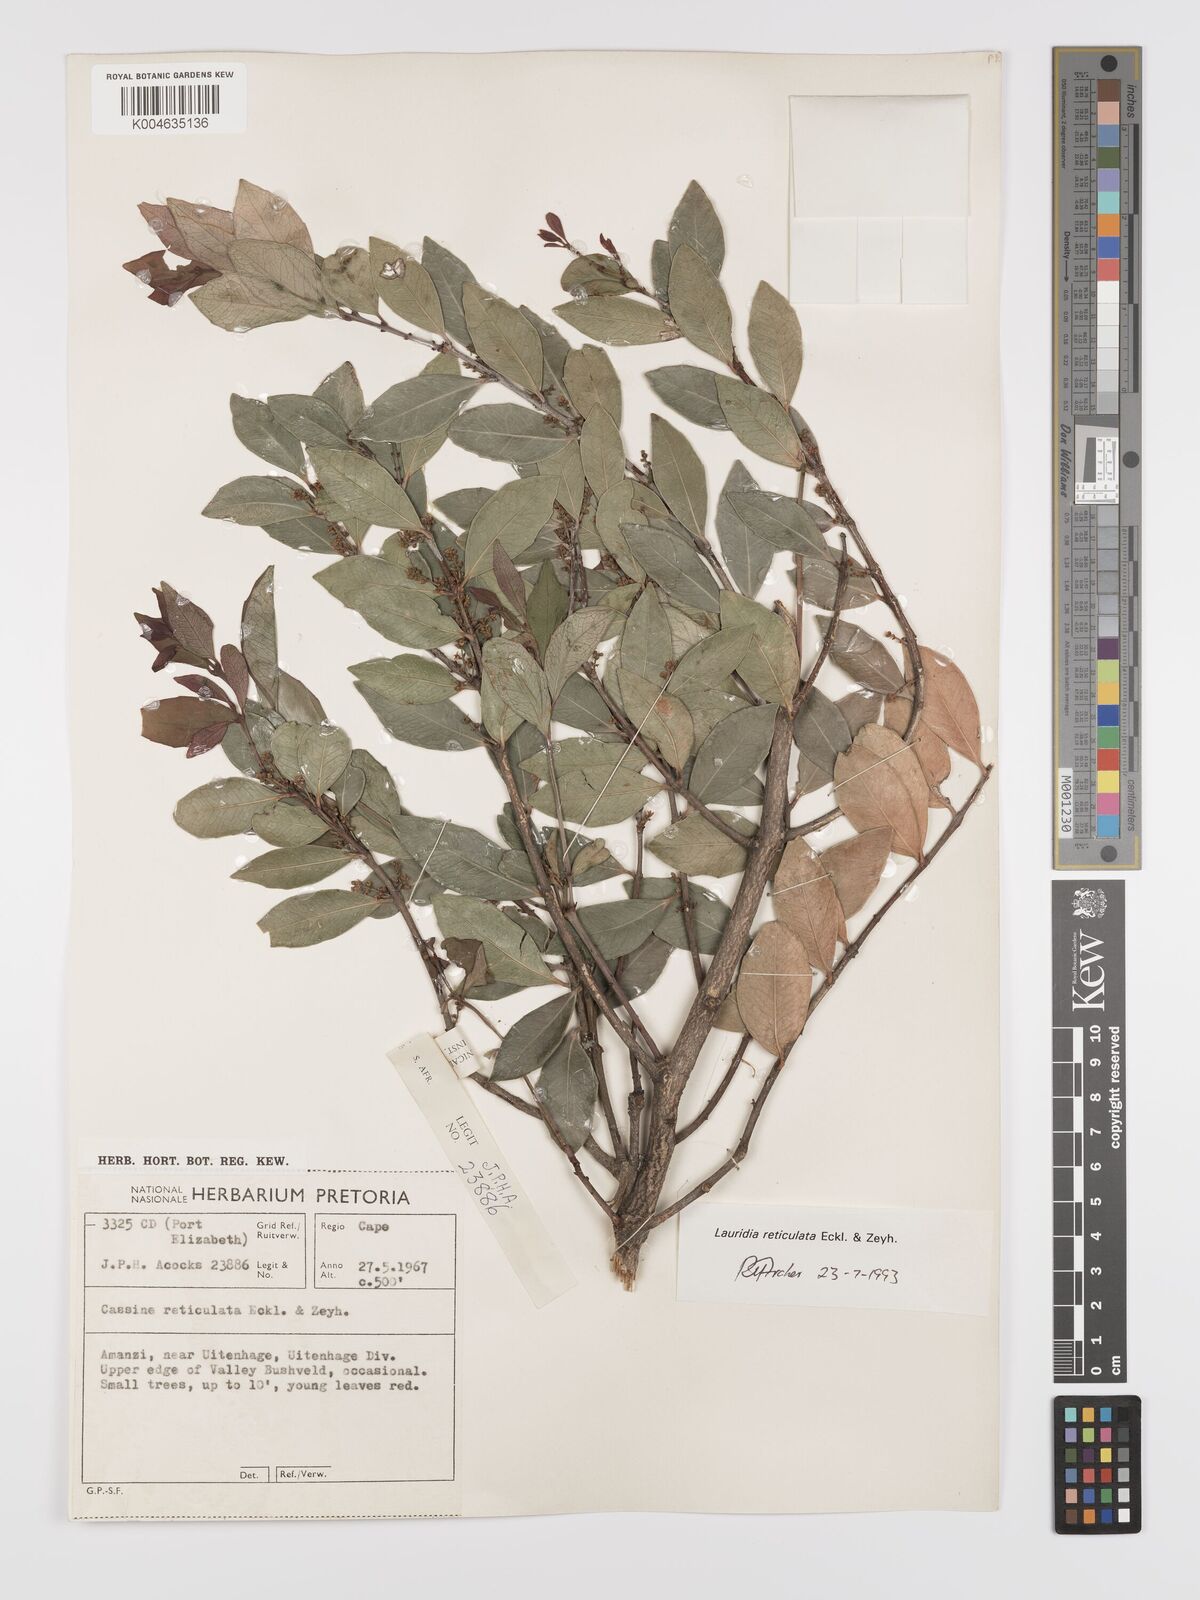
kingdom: Plantae
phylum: Tracheophyta
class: Magnoliopsida
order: Celastrales
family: Celastraceae
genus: Lauridia
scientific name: Lauridia reticulata
